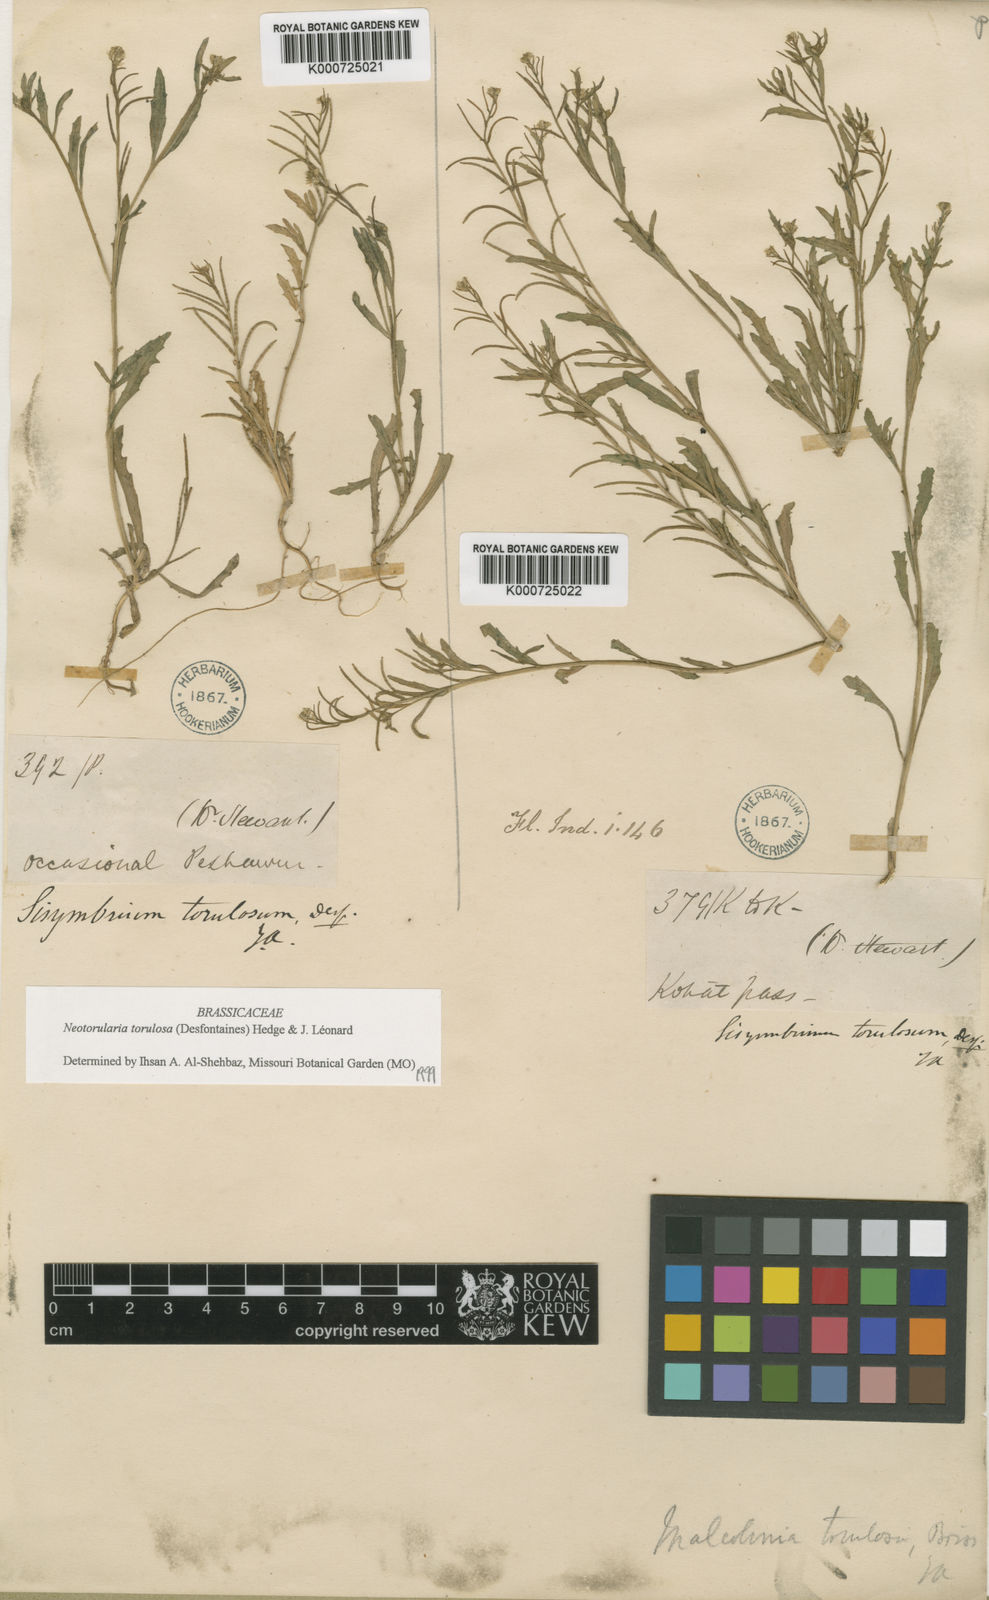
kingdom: Plantae
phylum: Tracheophyta
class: Magnoliopsida
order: Brassicales
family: Brassicaceae
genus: Neotorularia
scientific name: Neotorularia
